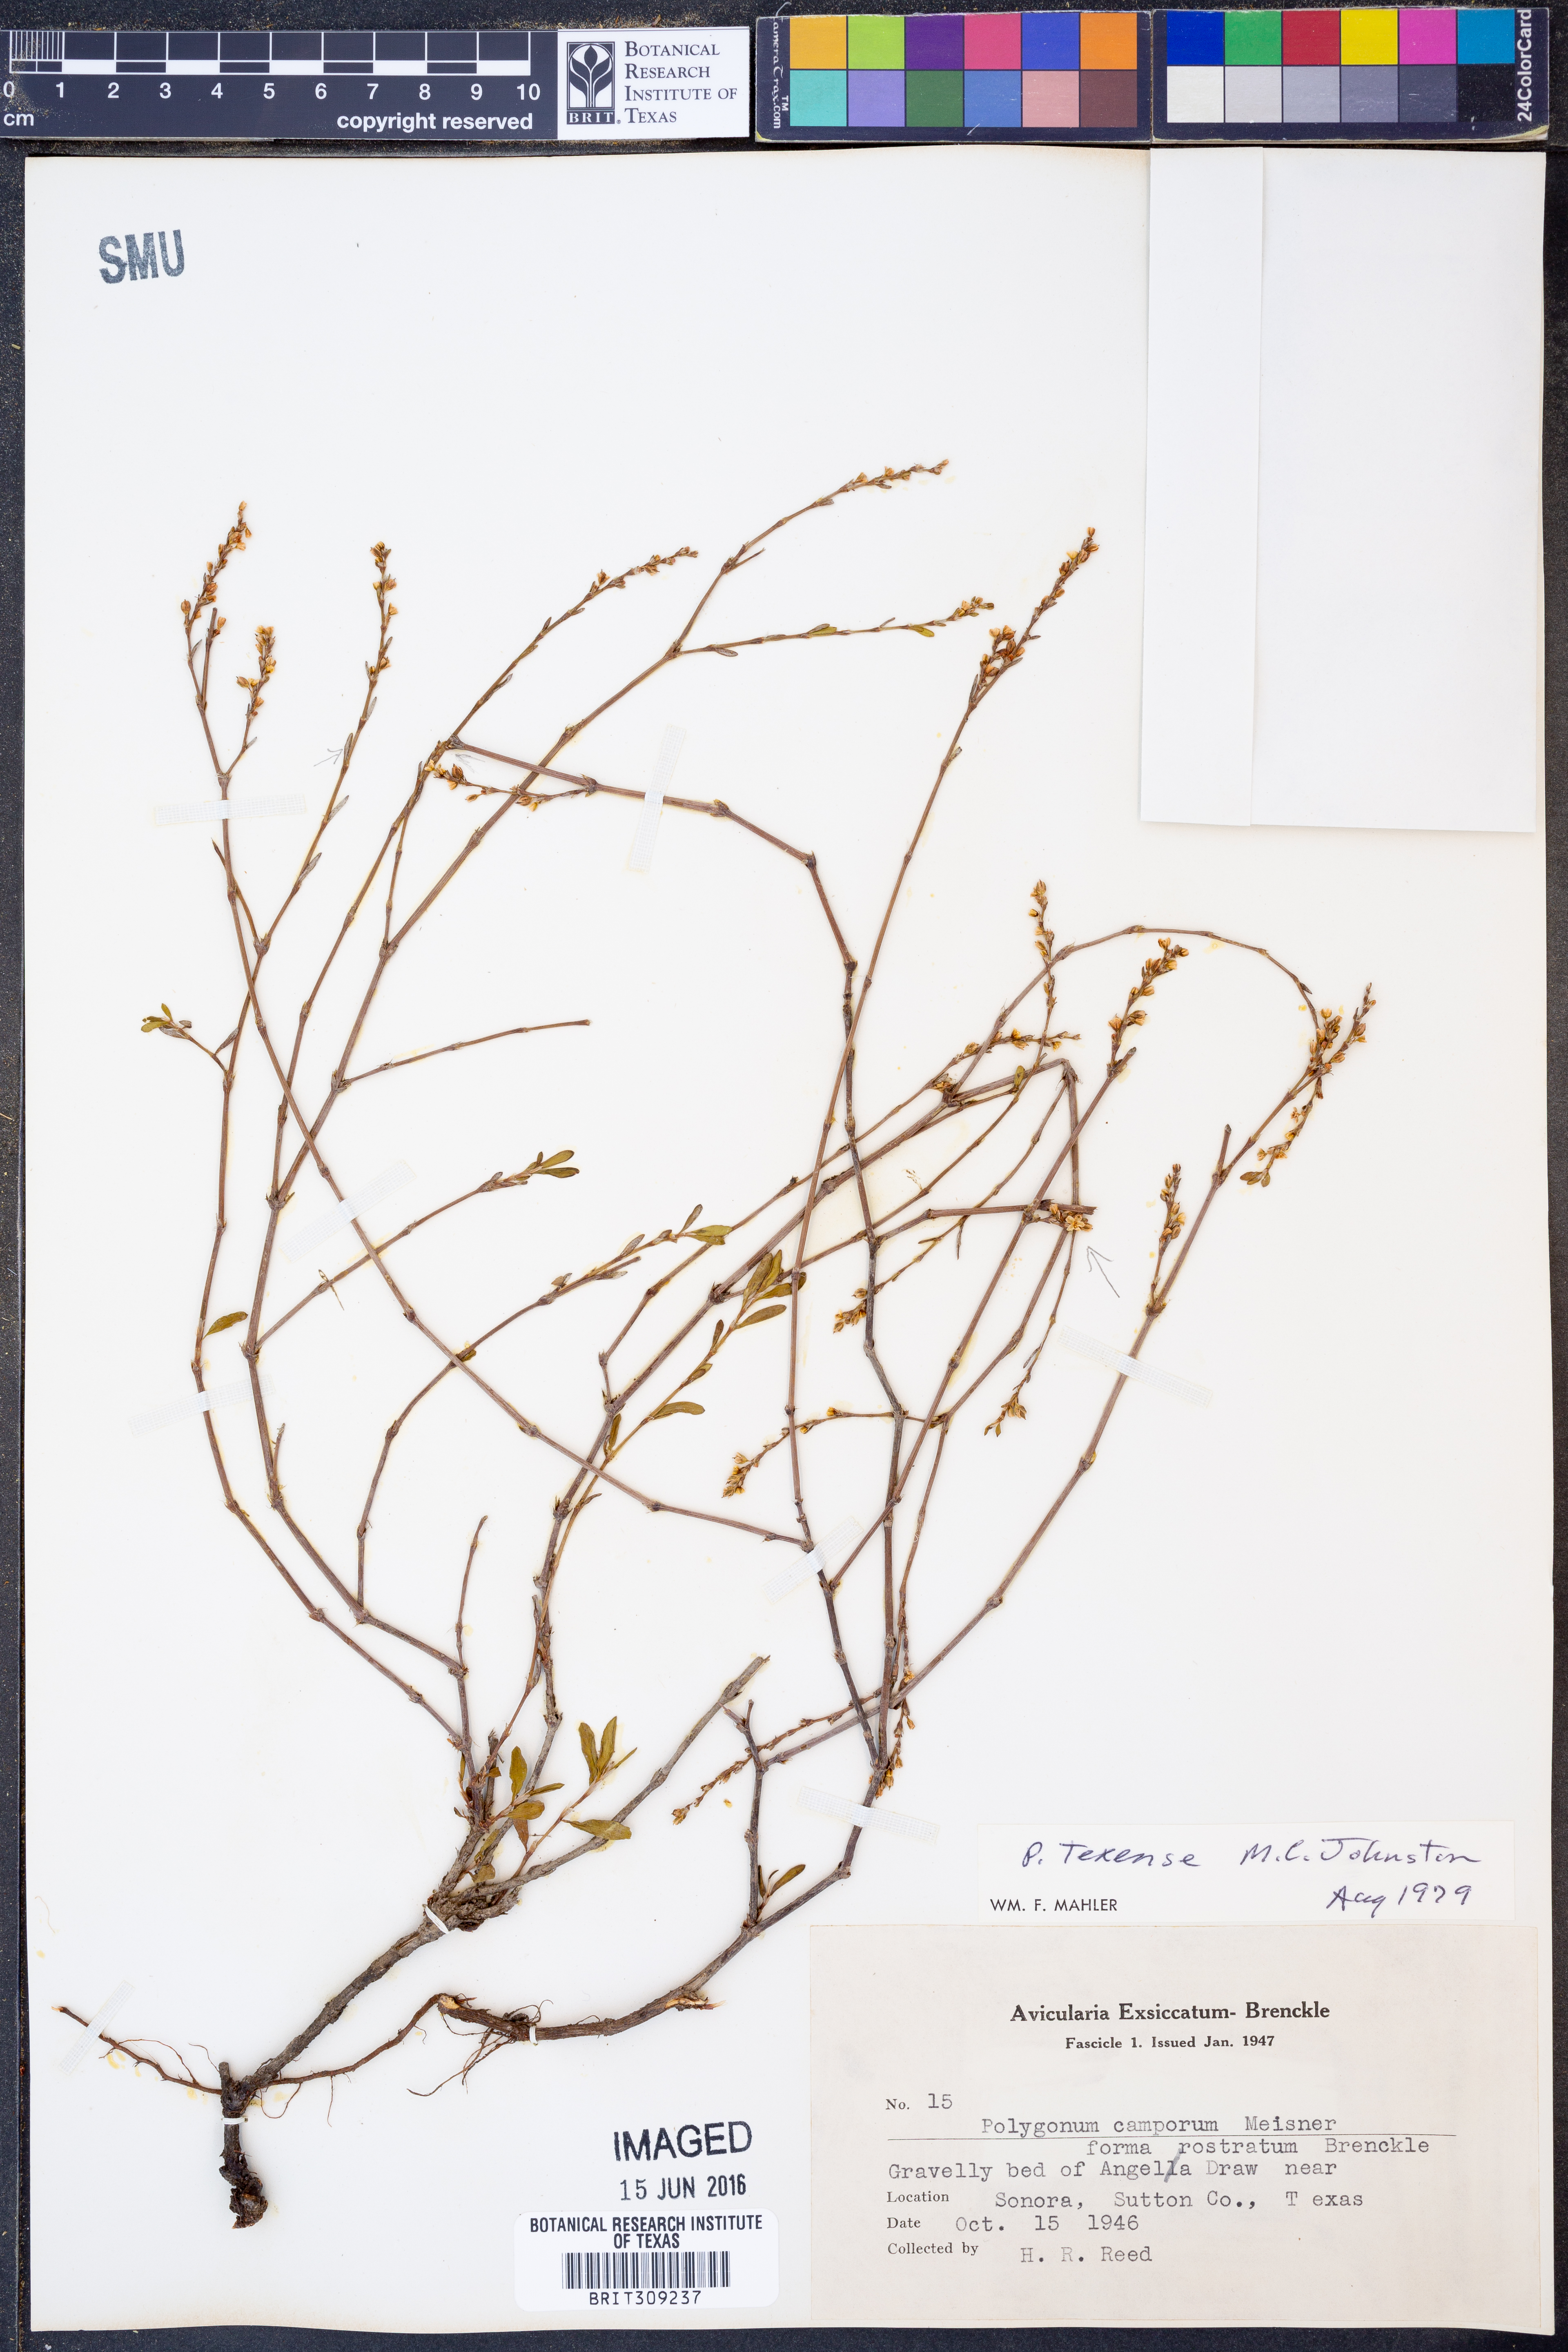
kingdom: Plantae
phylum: Tracheophyta
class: Magnoliopsida
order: Caryophyllales
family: Polygonaceae
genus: Polygonum
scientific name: Polygonum striatulum
